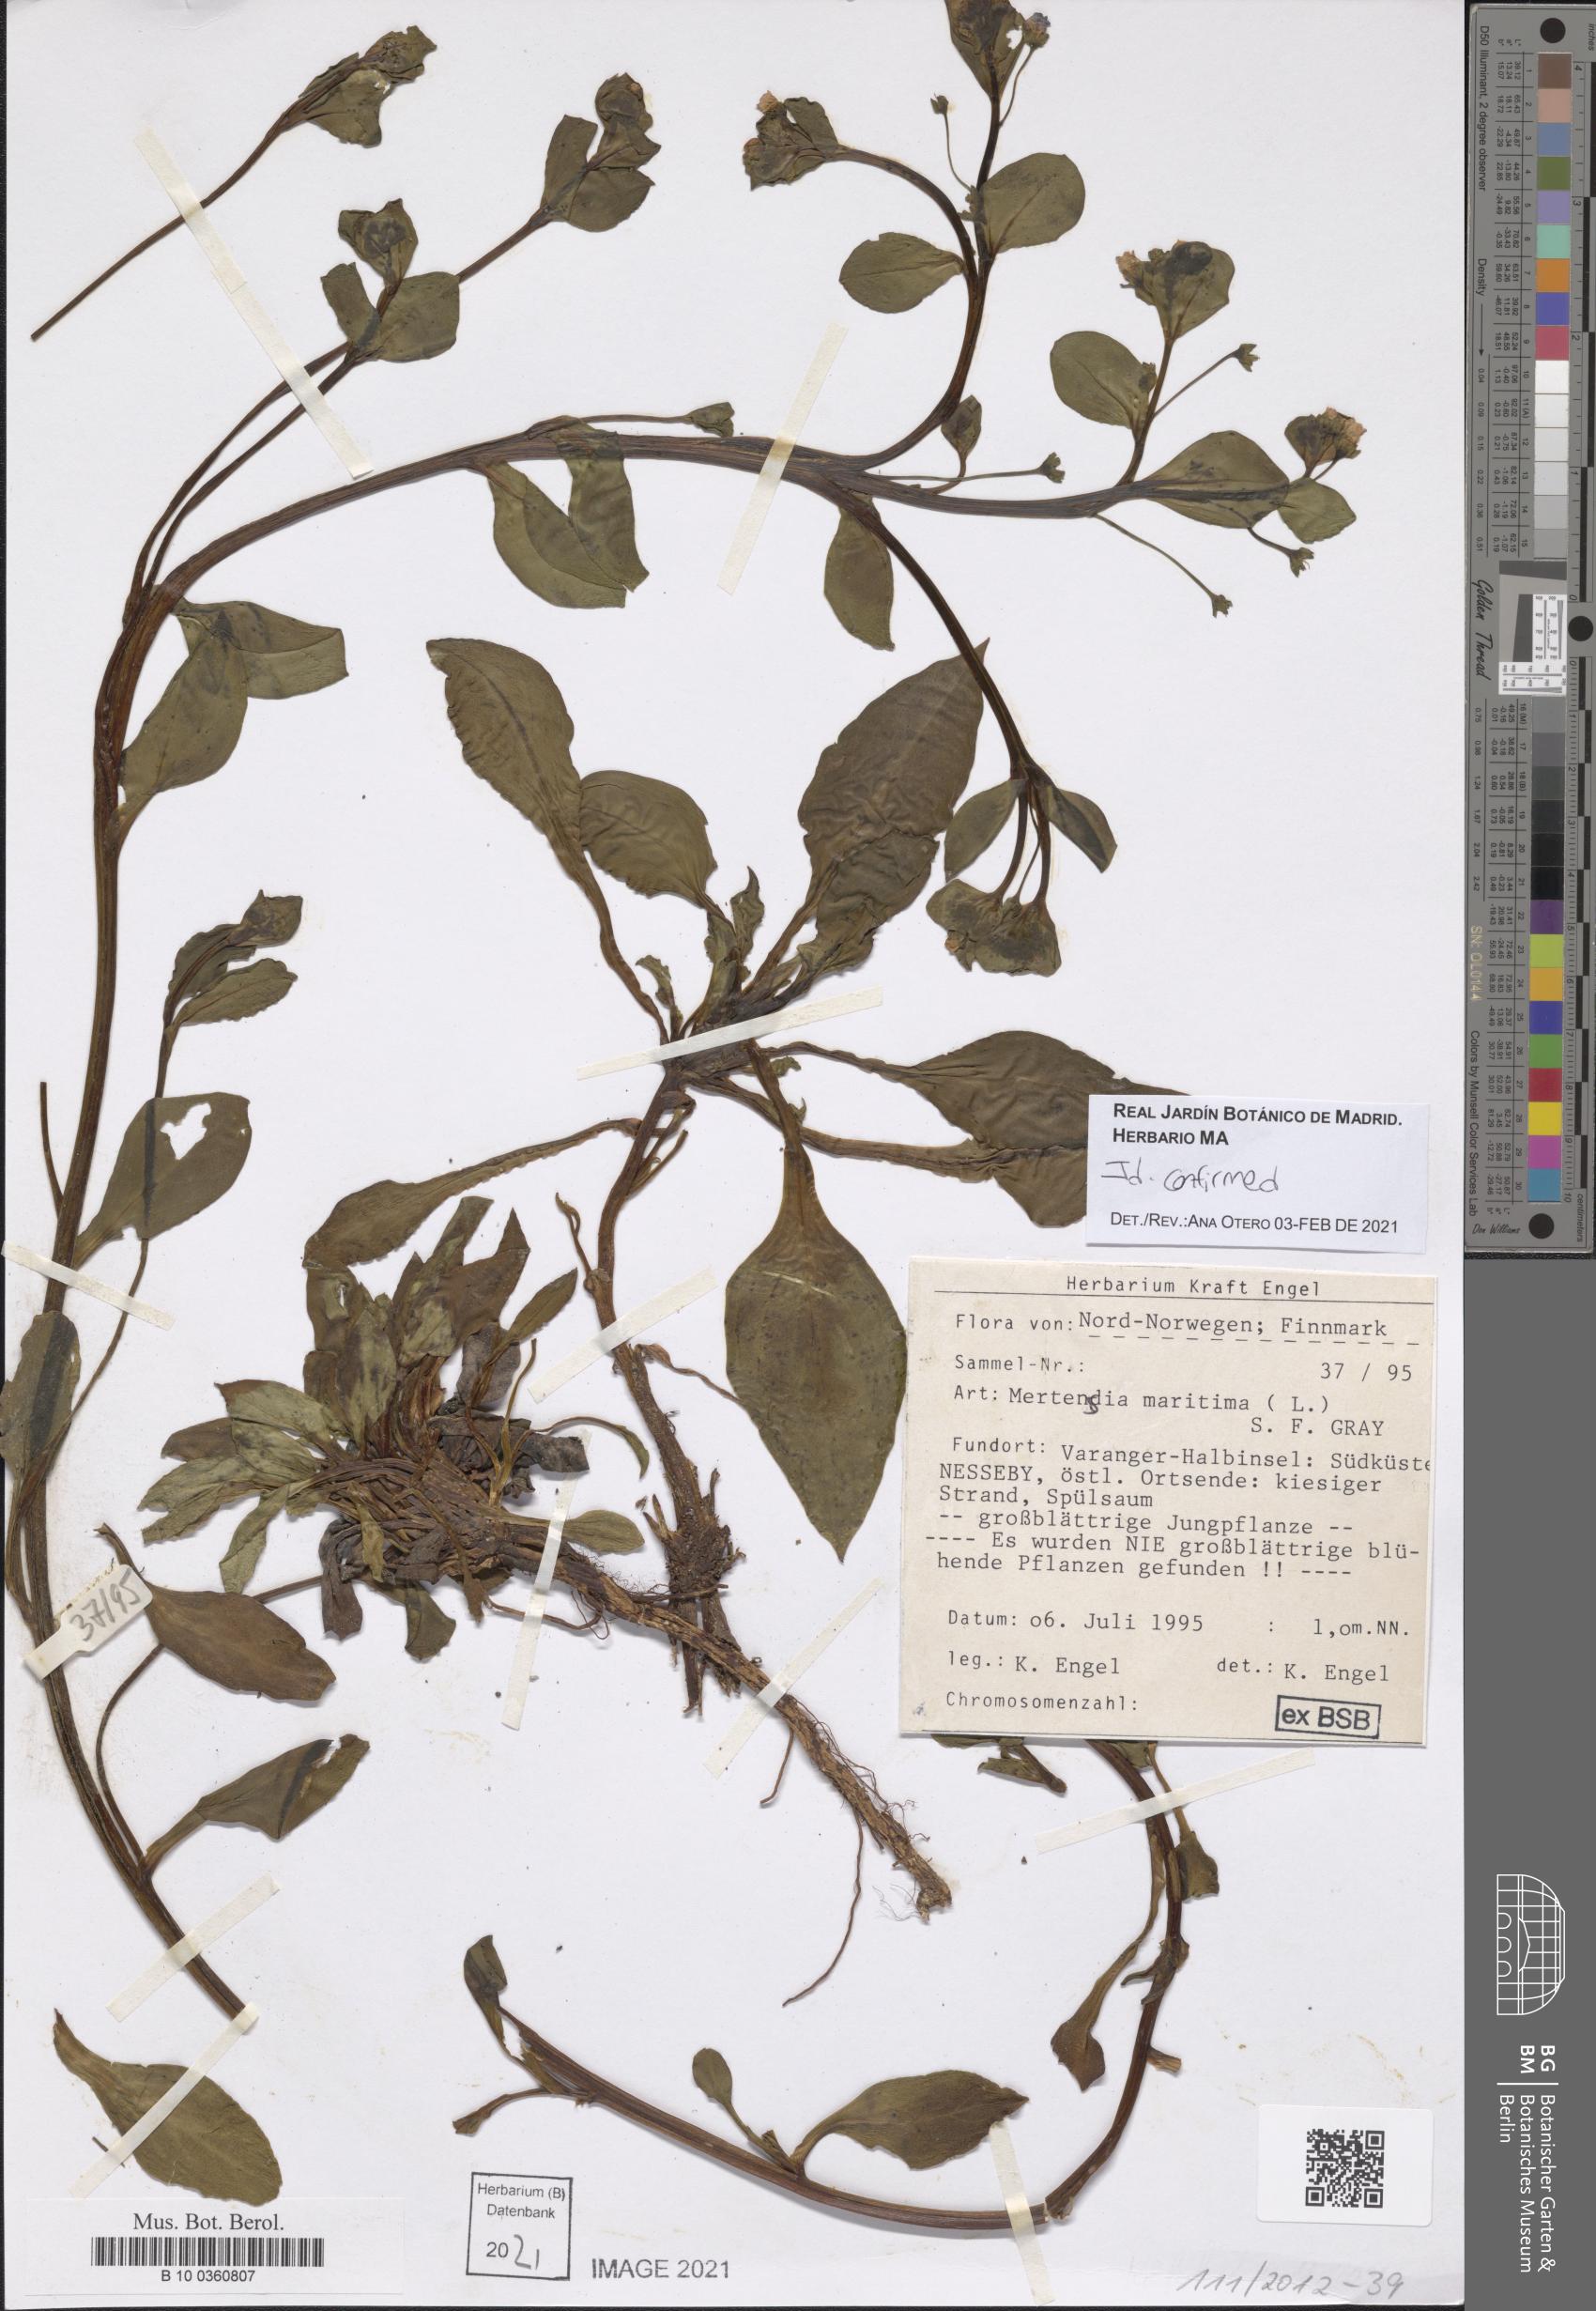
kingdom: Plantae
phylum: Tracheophyta
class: Magnoliopsida
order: Boraginales
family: Boraginaceae
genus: Mertensia
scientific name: Mertensia maritima
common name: Oysterplant
